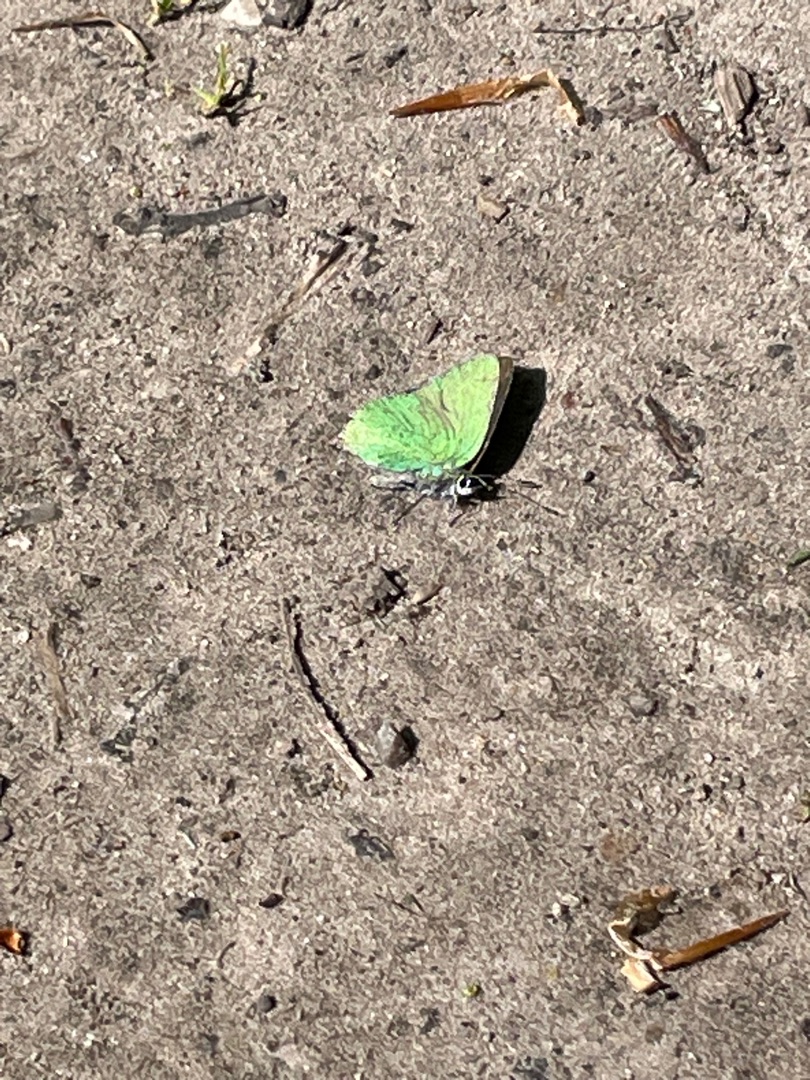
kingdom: Animalia
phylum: Arthropoda
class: Insecta
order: Lepidoptera
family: Lycaenidae
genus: Callophrys
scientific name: Callophrys rubi
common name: Grøn busksommerfugl
